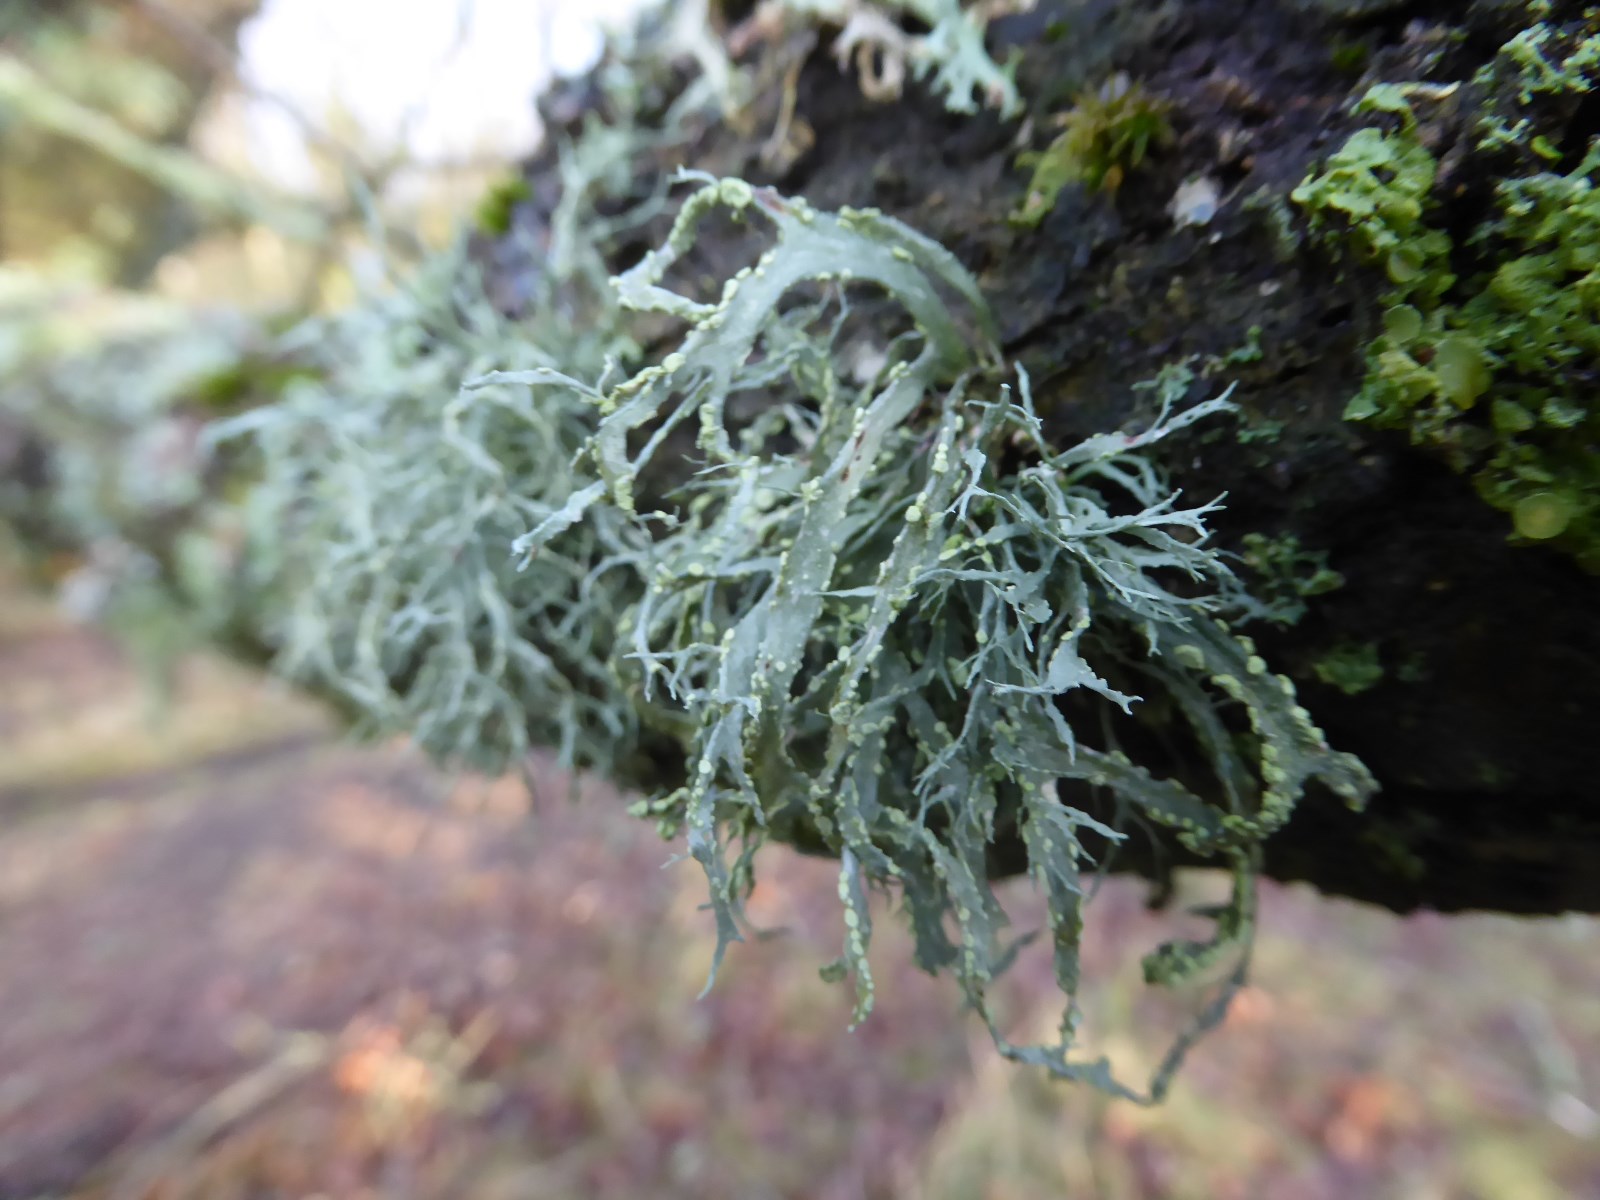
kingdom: Fungi
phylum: Ascomycota
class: Lecanoromycetes
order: Lecanorales
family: Ramalinaceae
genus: Ramalina
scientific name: Ramalina farinacea
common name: melet grenlav
